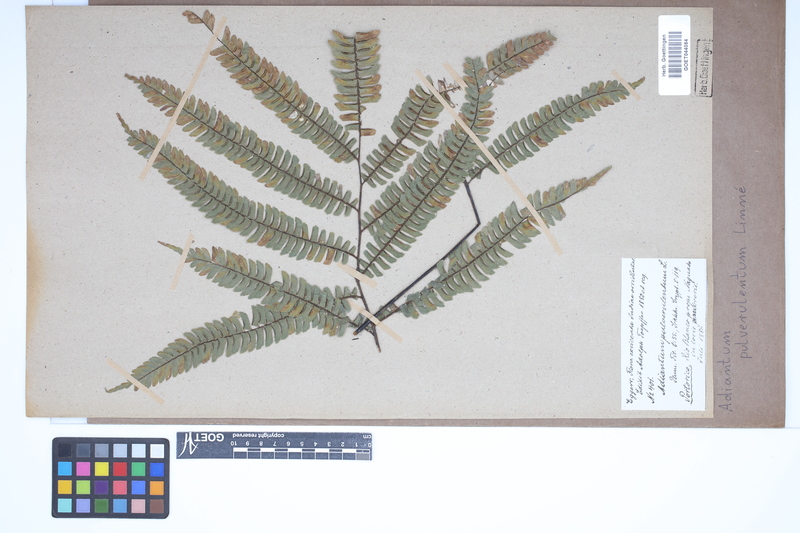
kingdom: Plantae
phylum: Tracheophyta
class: Polypodiopsida
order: Polypodiales
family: Pteridaceae
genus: Adiantum
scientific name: Adiantum pulverulentum
